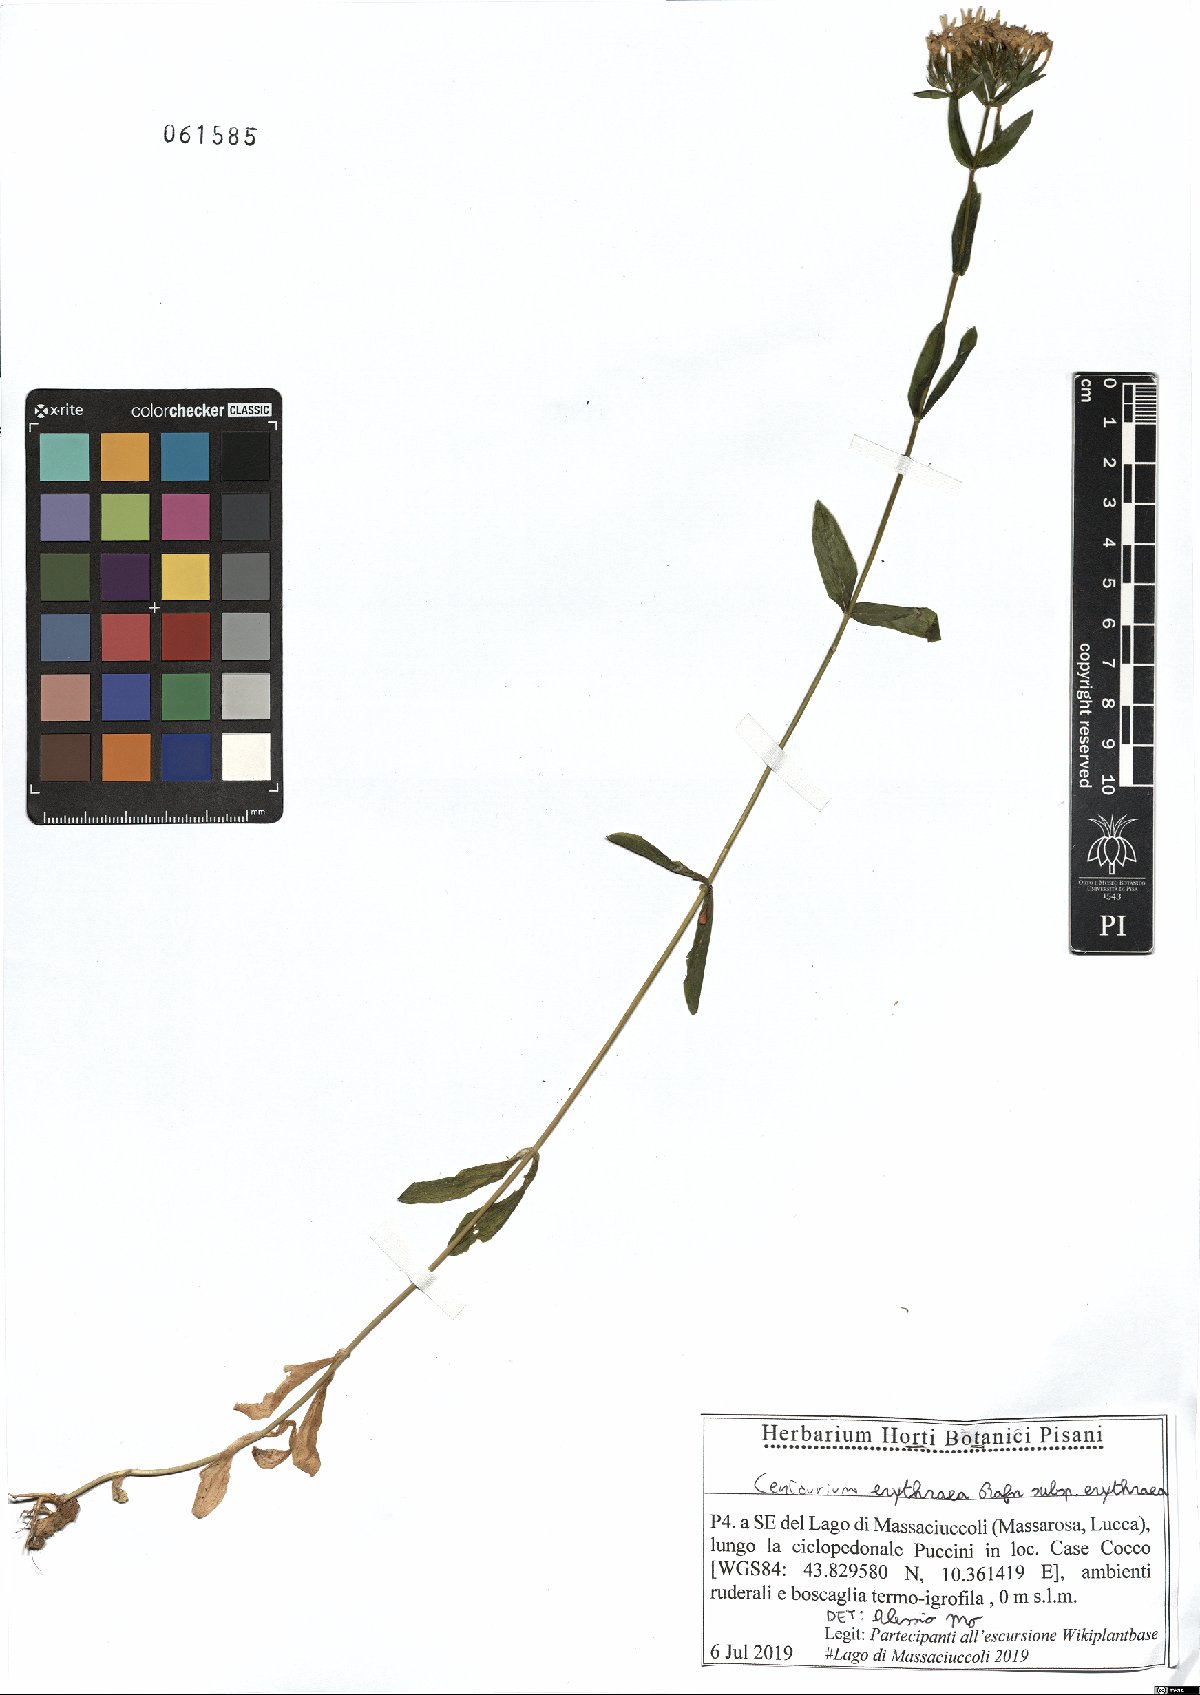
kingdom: Plantae
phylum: Tracheophyta
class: Magnoliopsida
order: Gentianales
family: Gentianaceae
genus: Centaurium
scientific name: Centaurium erythraea
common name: Common centaury
